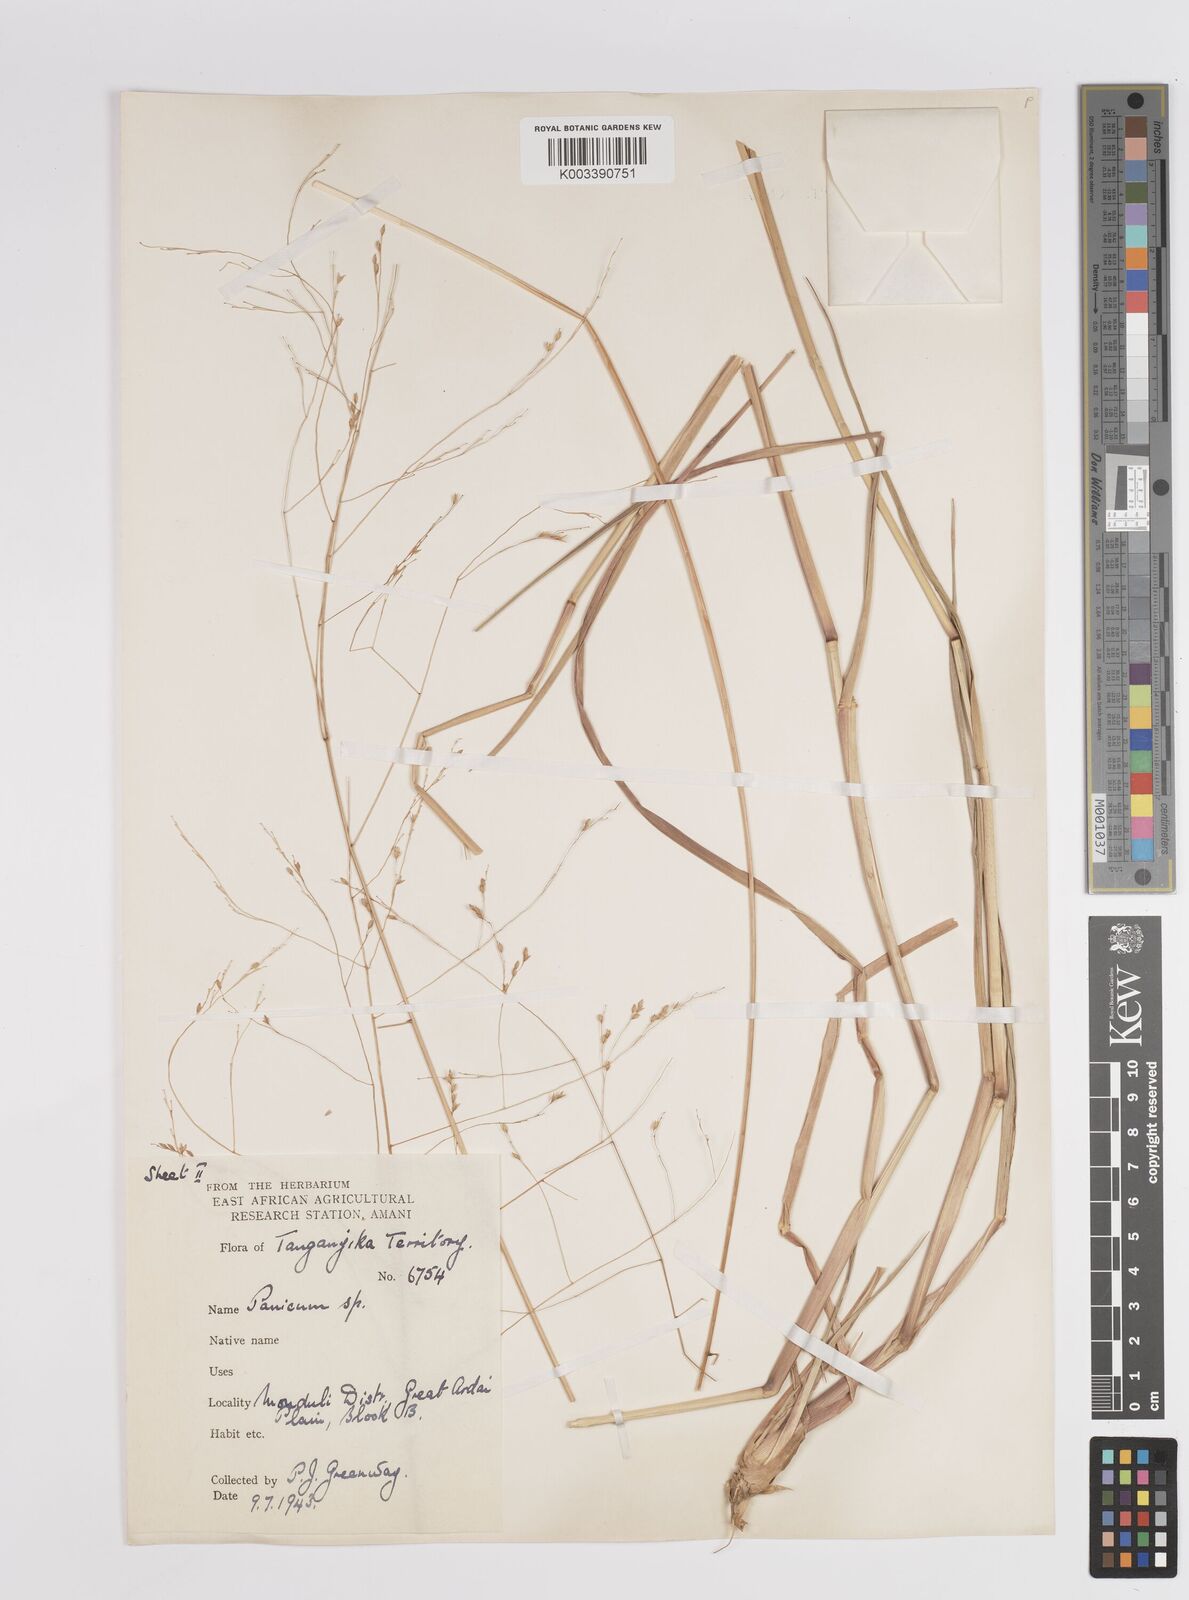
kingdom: Plantae
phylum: Tracheophyta
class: Liliopsida
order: Poales
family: Poaceae
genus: Panicum
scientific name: Panicum porphyrrhizos
